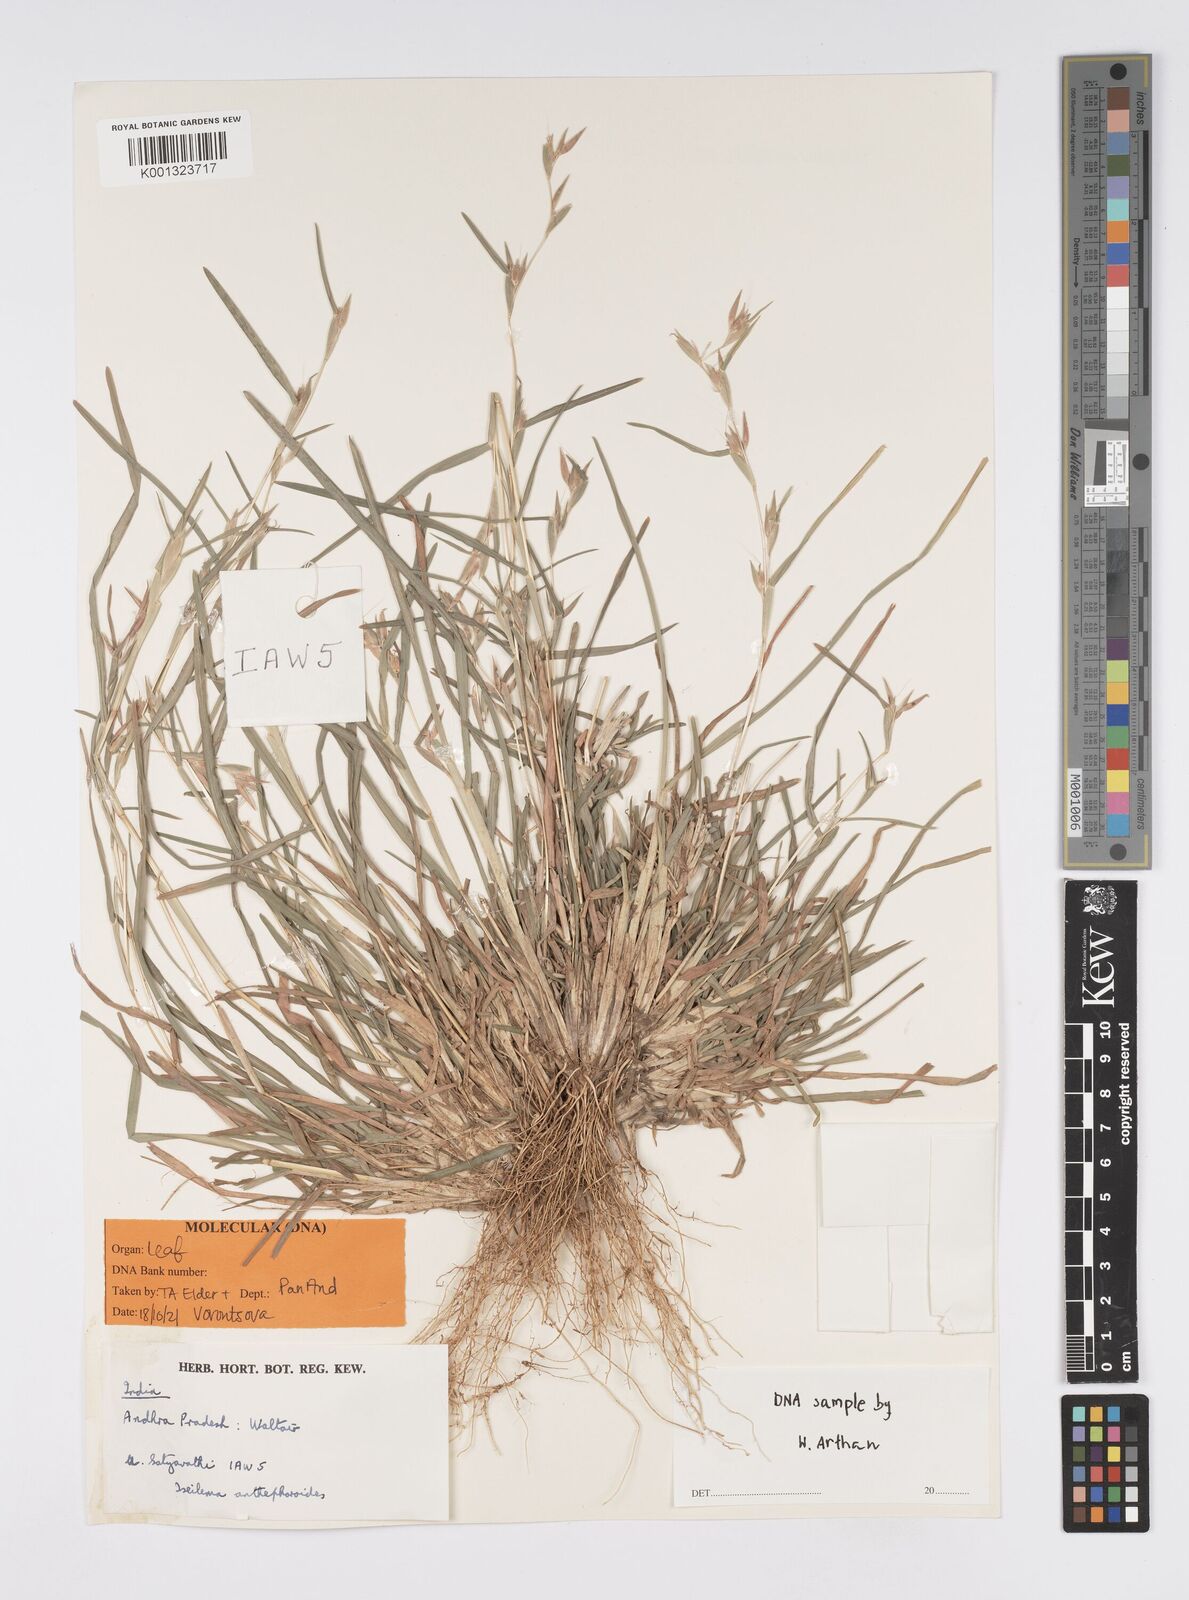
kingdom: Plantae
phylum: Tracheophyta
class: Liliopsida
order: Poales
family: Poaceae
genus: Iseilema
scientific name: Iseilema anthephoroides
